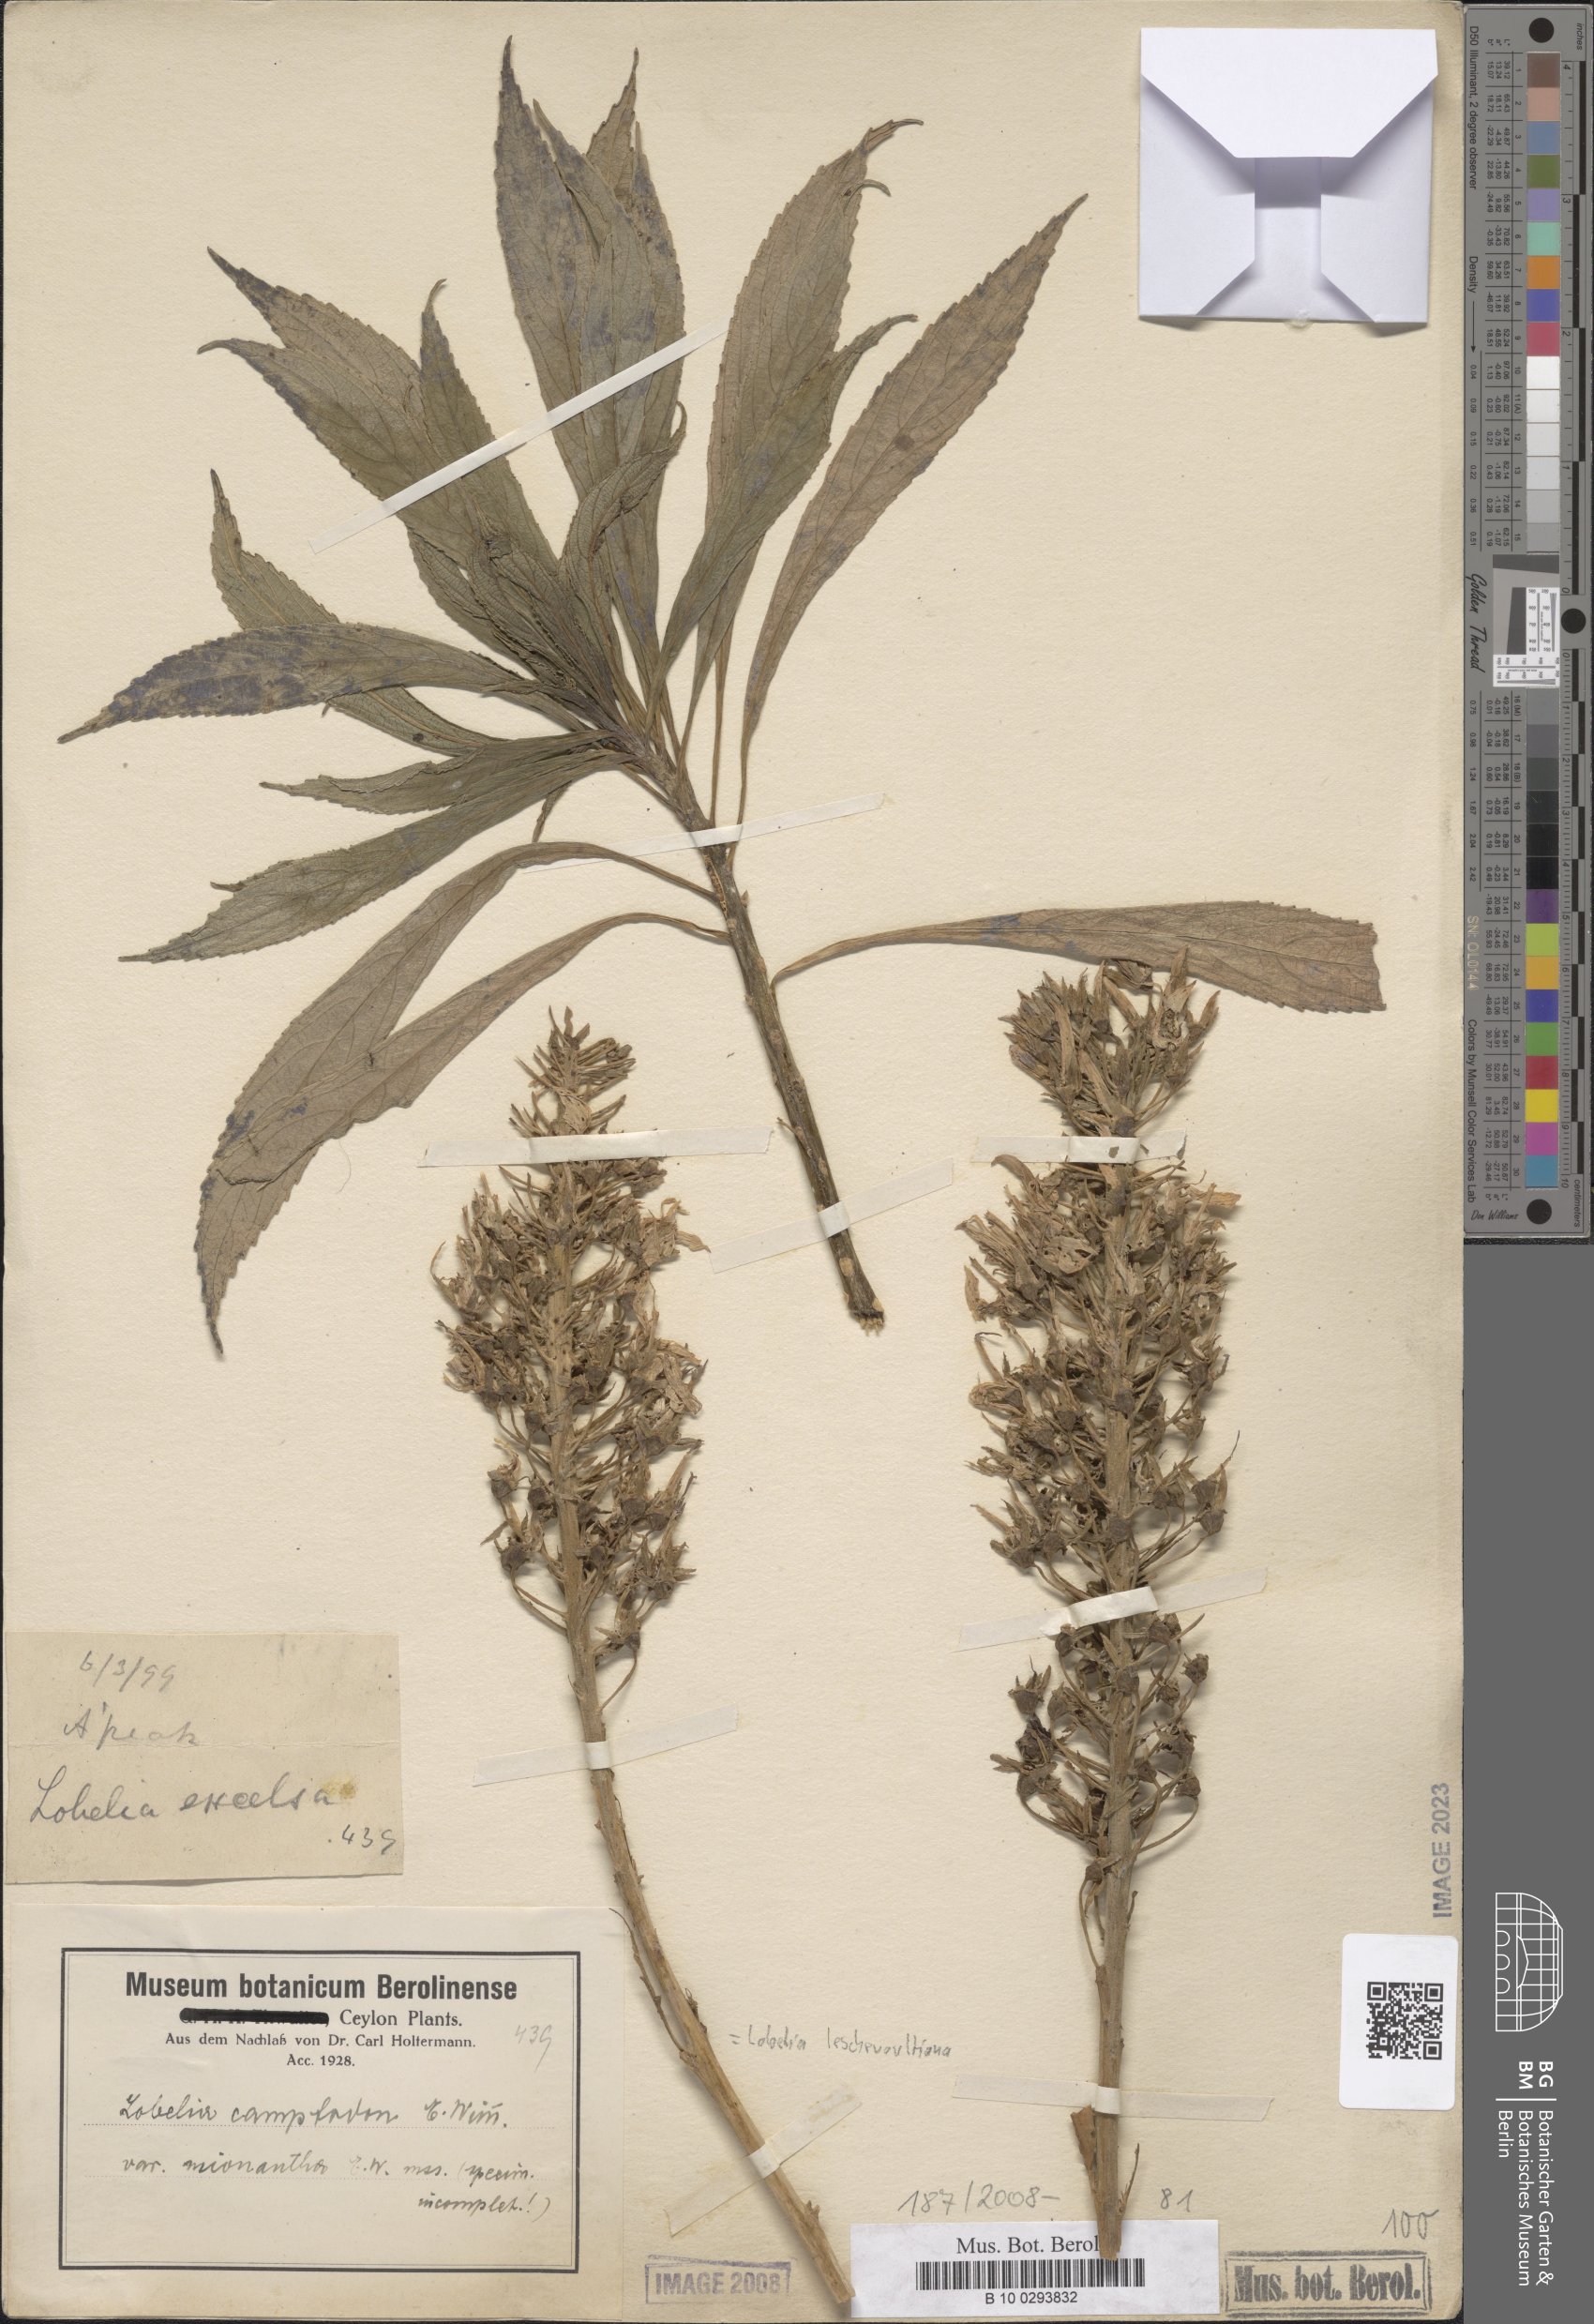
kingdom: Plantae
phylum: Tracheophyta
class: Magnoliopsida
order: Asterales
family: Campanulaceae
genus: Lobelia
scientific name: Lobelia leschenaultiana
